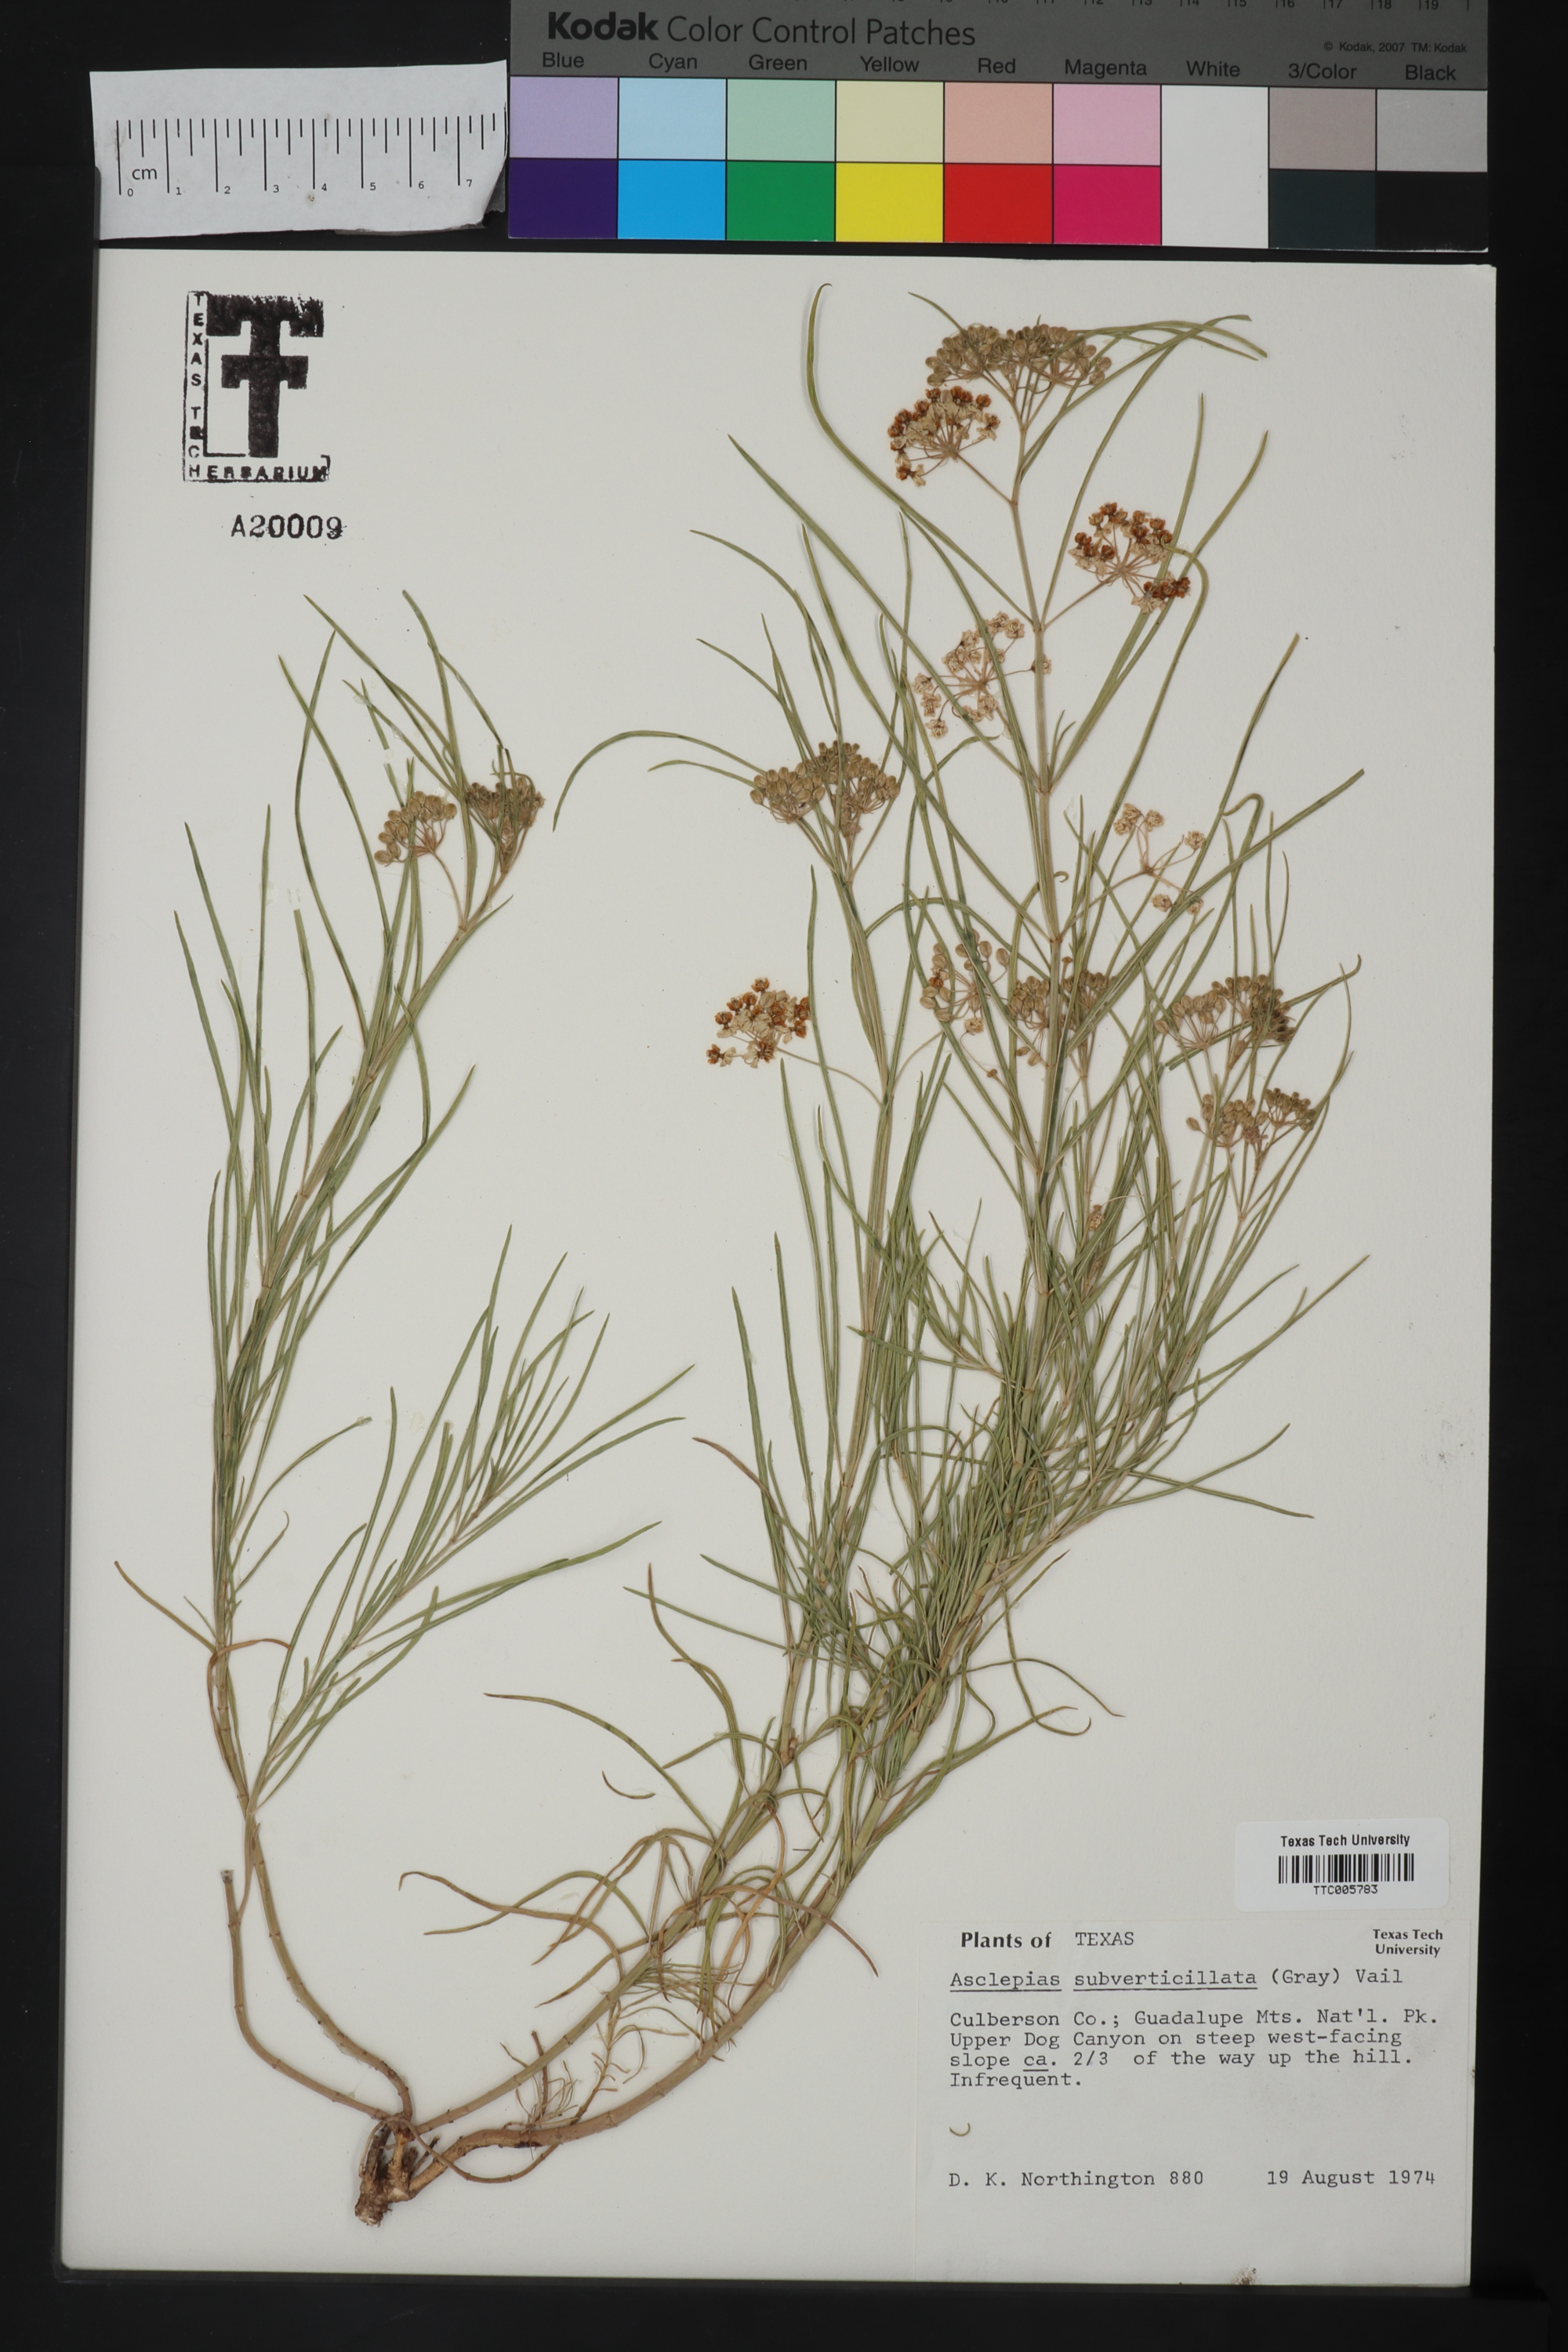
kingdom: Plantae
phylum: Tracheophyta
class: Magnoliopsida
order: Gentianales
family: Apocynaceae
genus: Asclepias
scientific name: Asclepias subverticillata
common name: Horsetail milkweed
